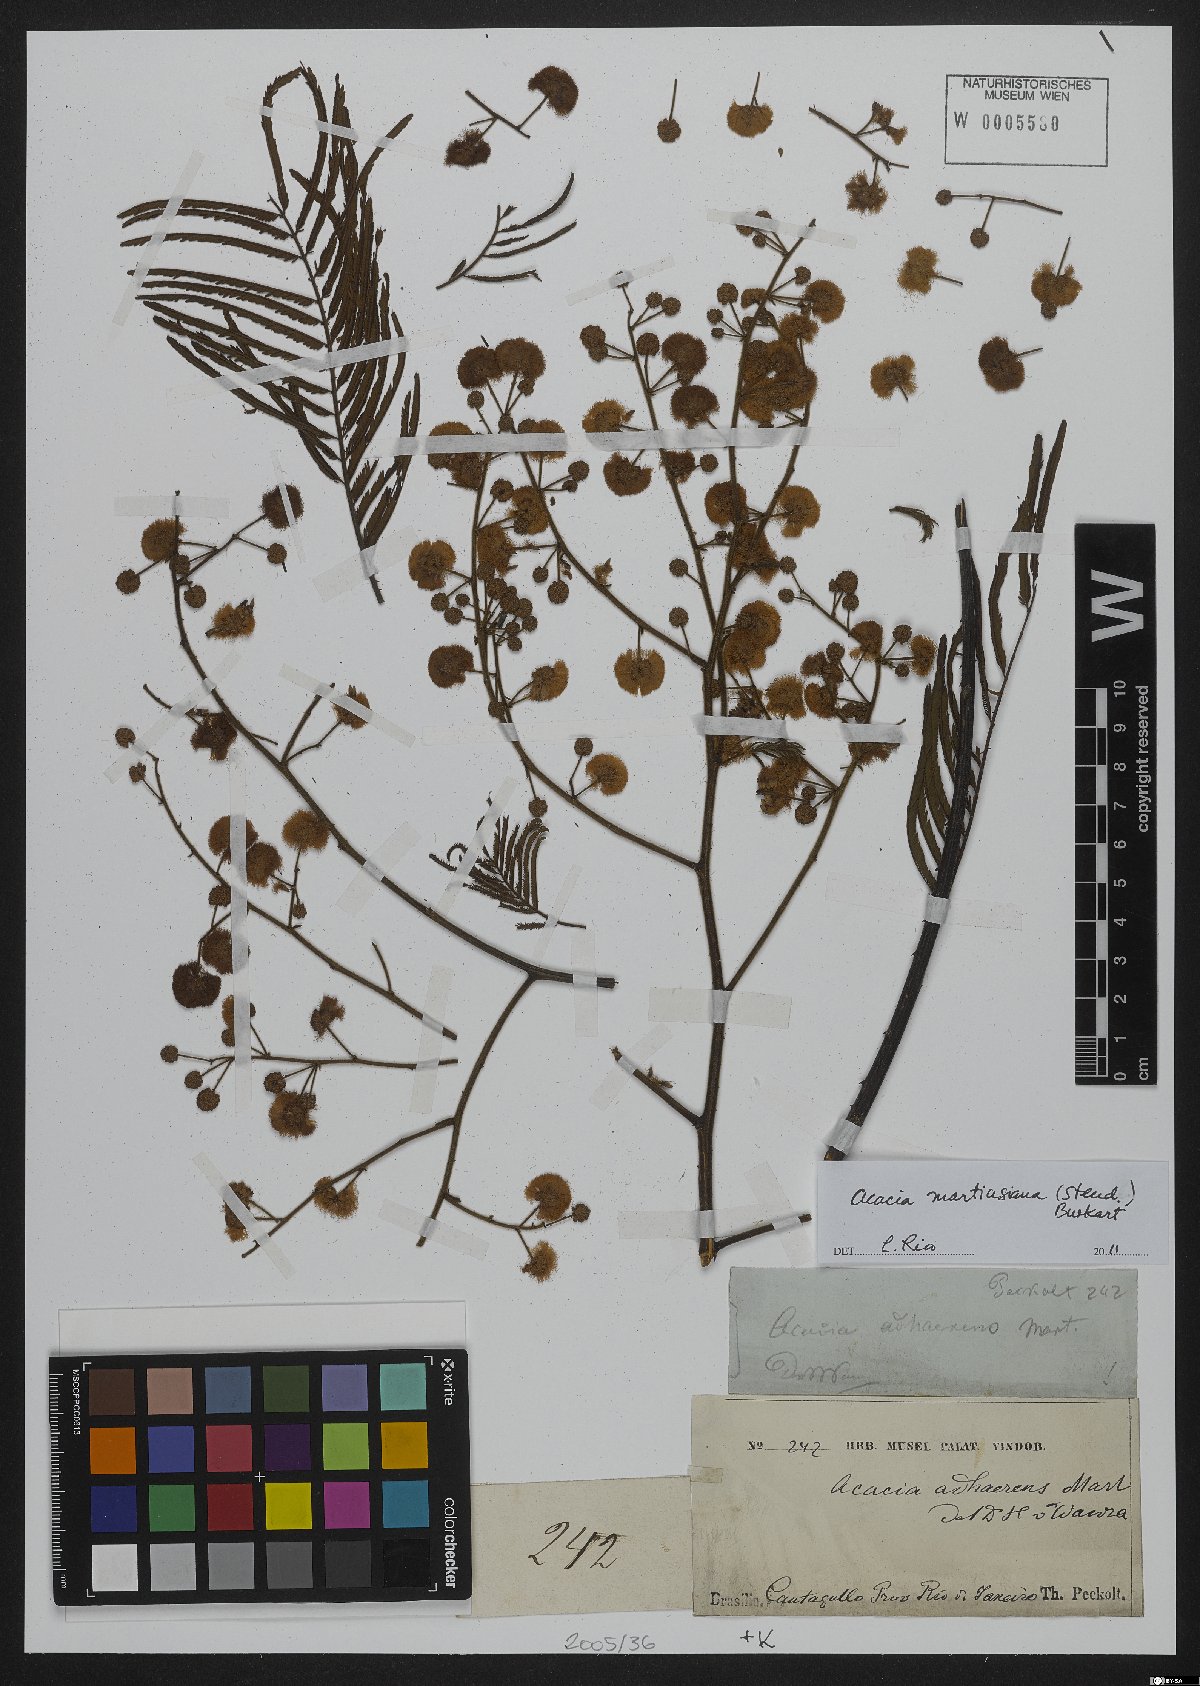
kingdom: Plantae
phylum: Tracheophyta
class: Magnoliopsida
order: Fabales
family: Fabaceae
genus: Senegalia
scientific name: Senegalia martiusiana
